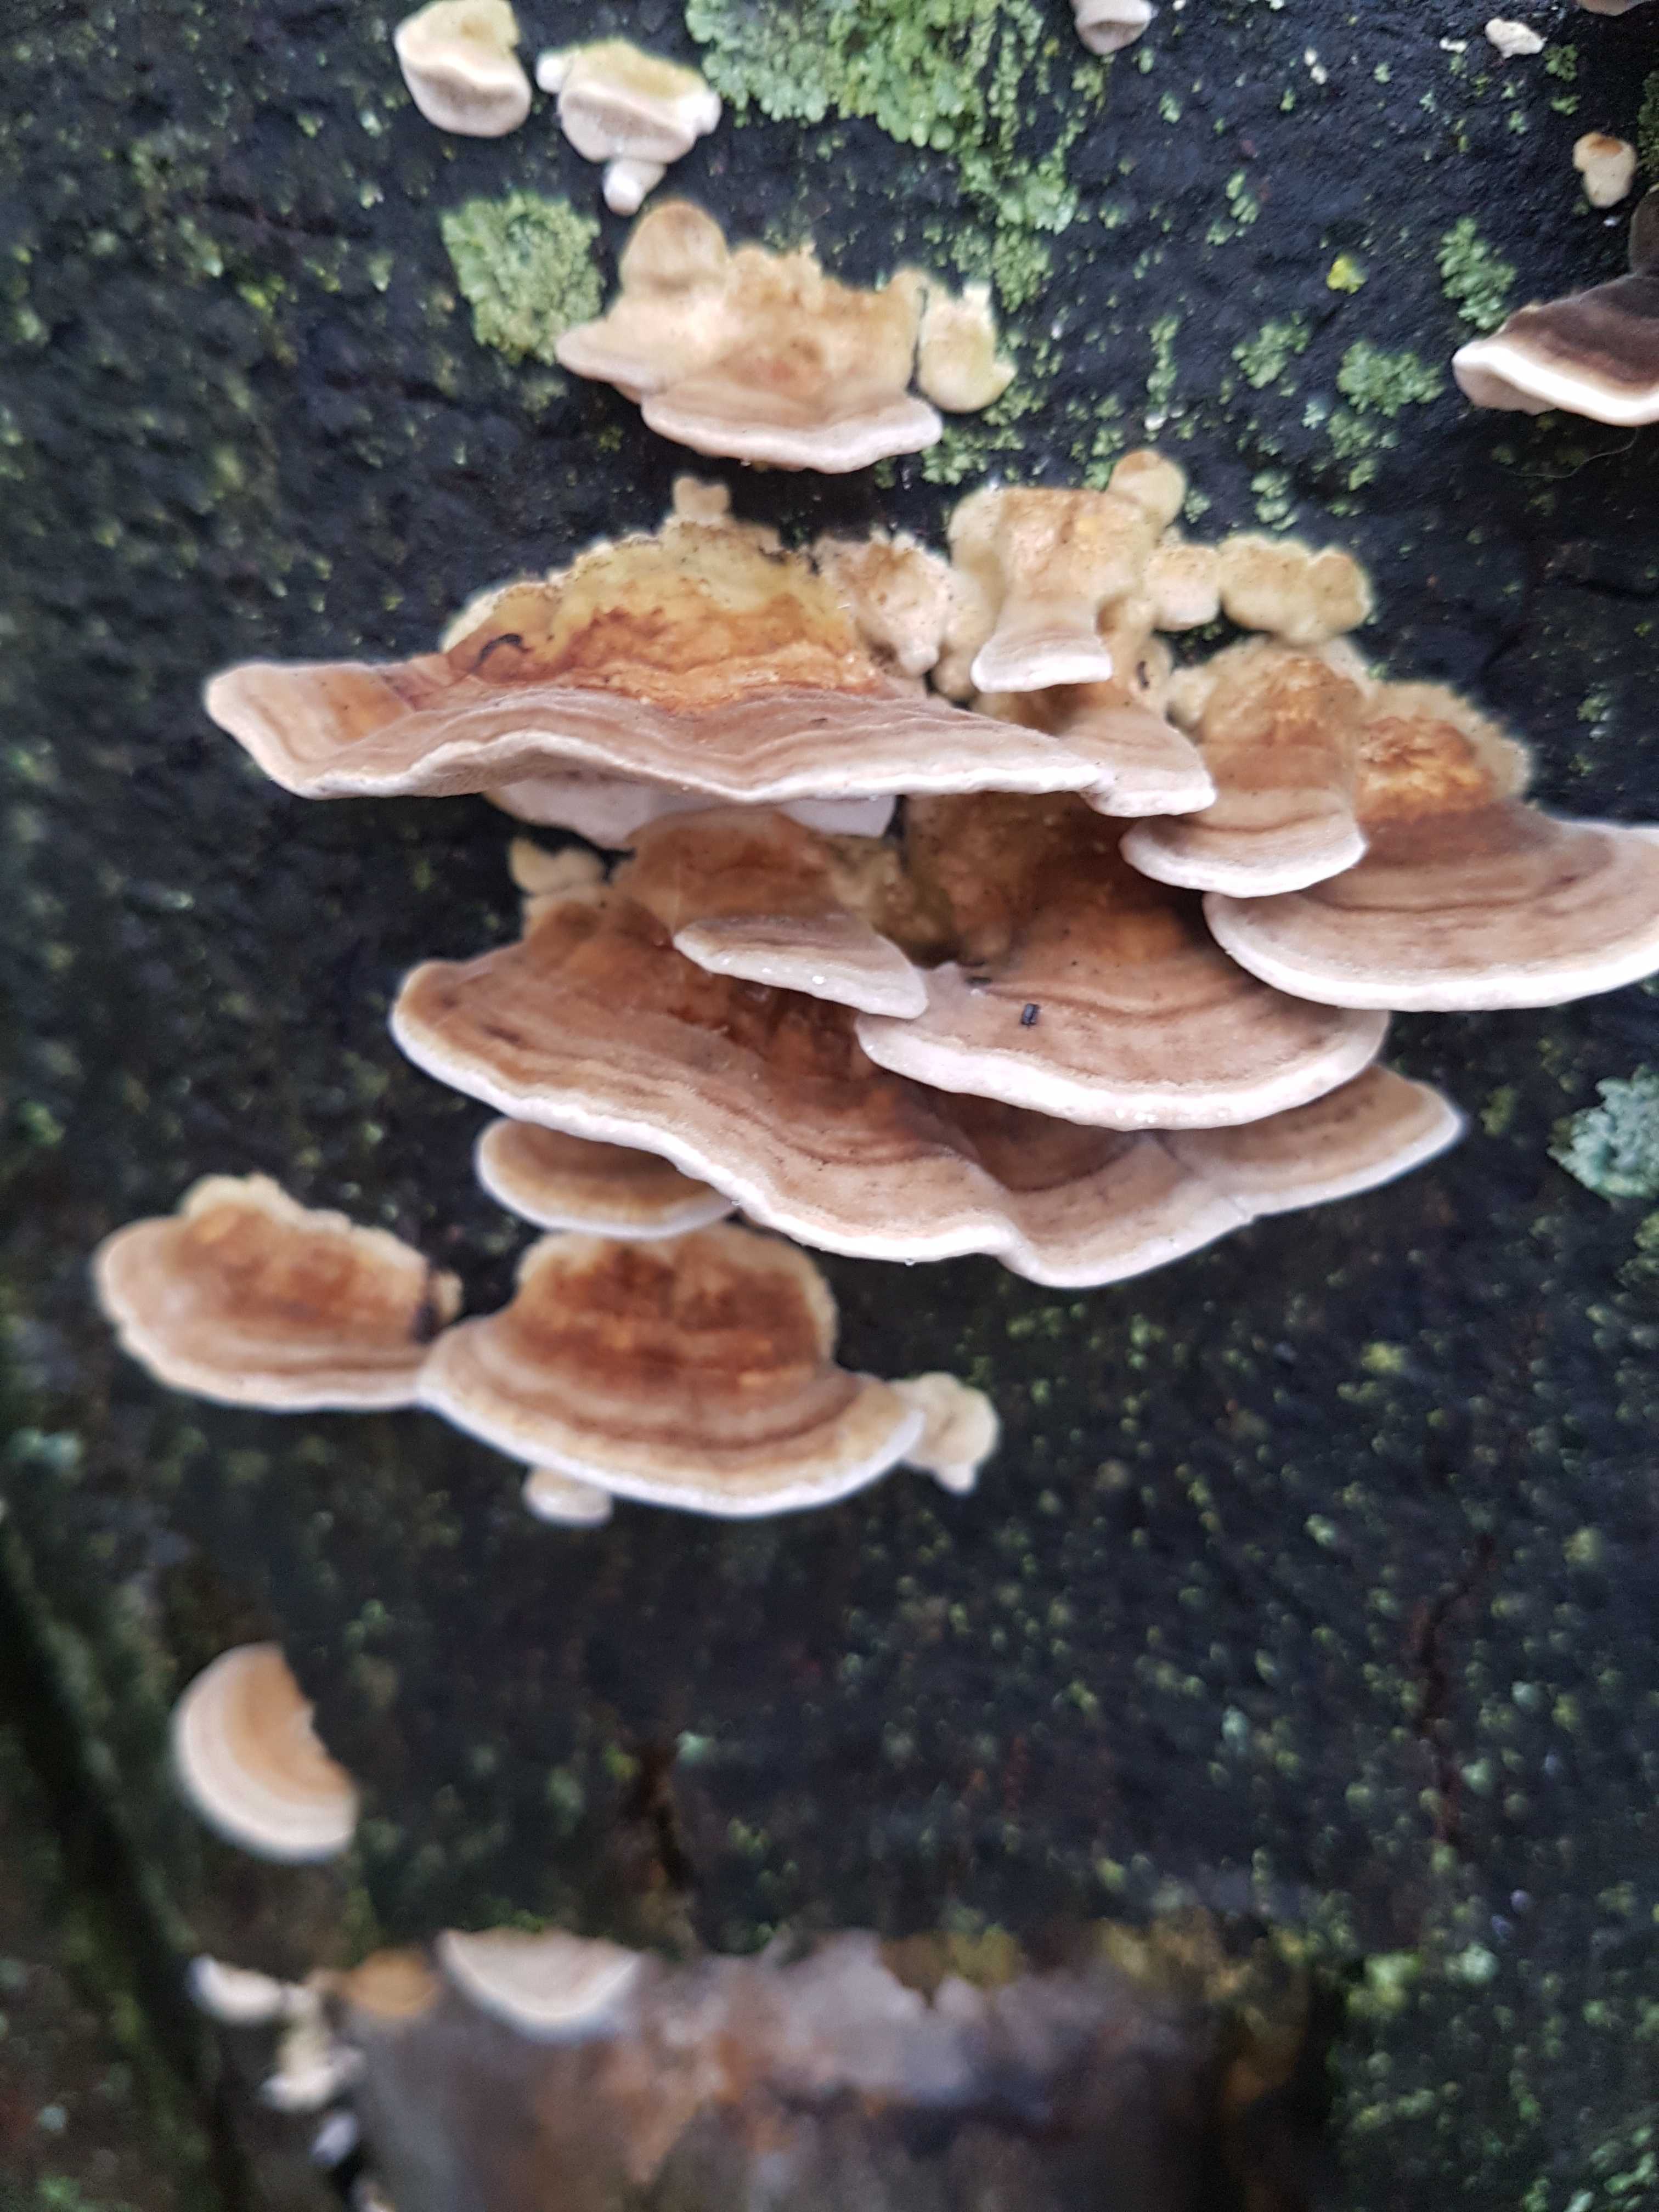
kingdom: Fungi
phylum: Basidiomycota
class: Agaricomycetes
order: Polyporales
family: Polyporaceae
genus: Trametes
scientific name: Trametes ochracea
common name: bæltet læderporesvamp
